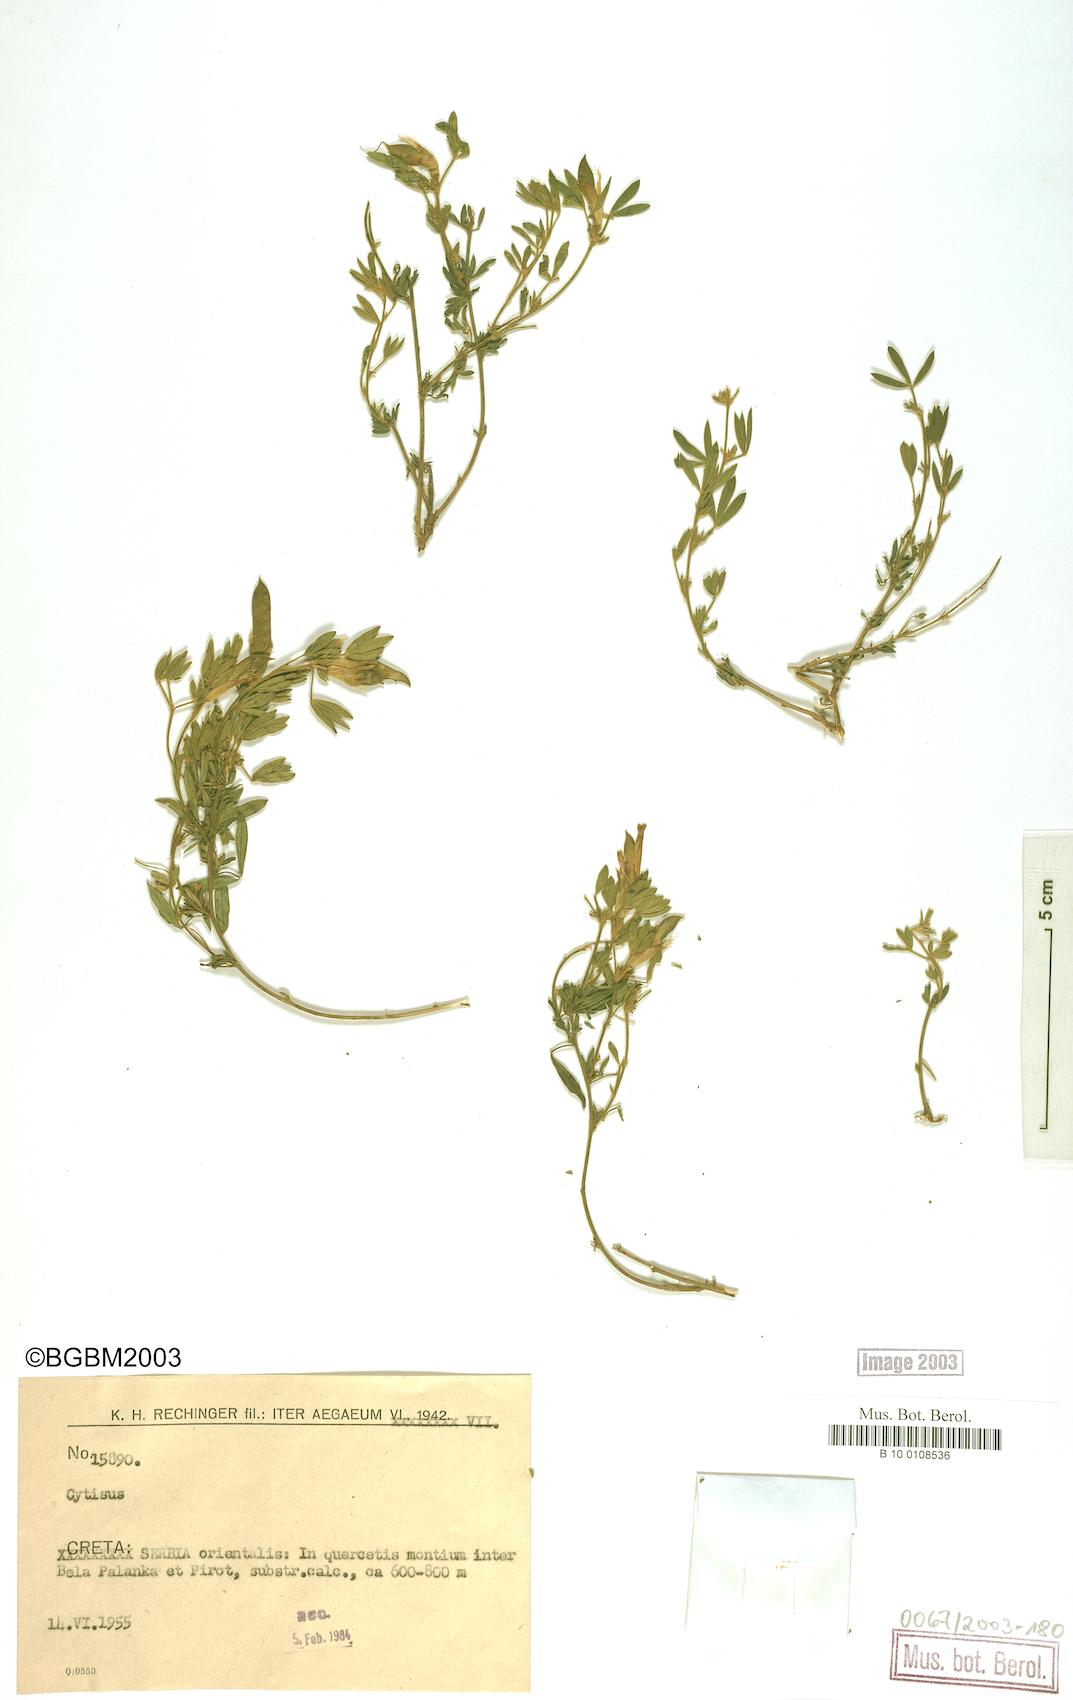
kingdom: Plantae
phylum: Tracheophyta
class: Magnoliopsida
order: Fabales
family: Fabaceae
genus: Cytisus
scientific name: Cytisus
